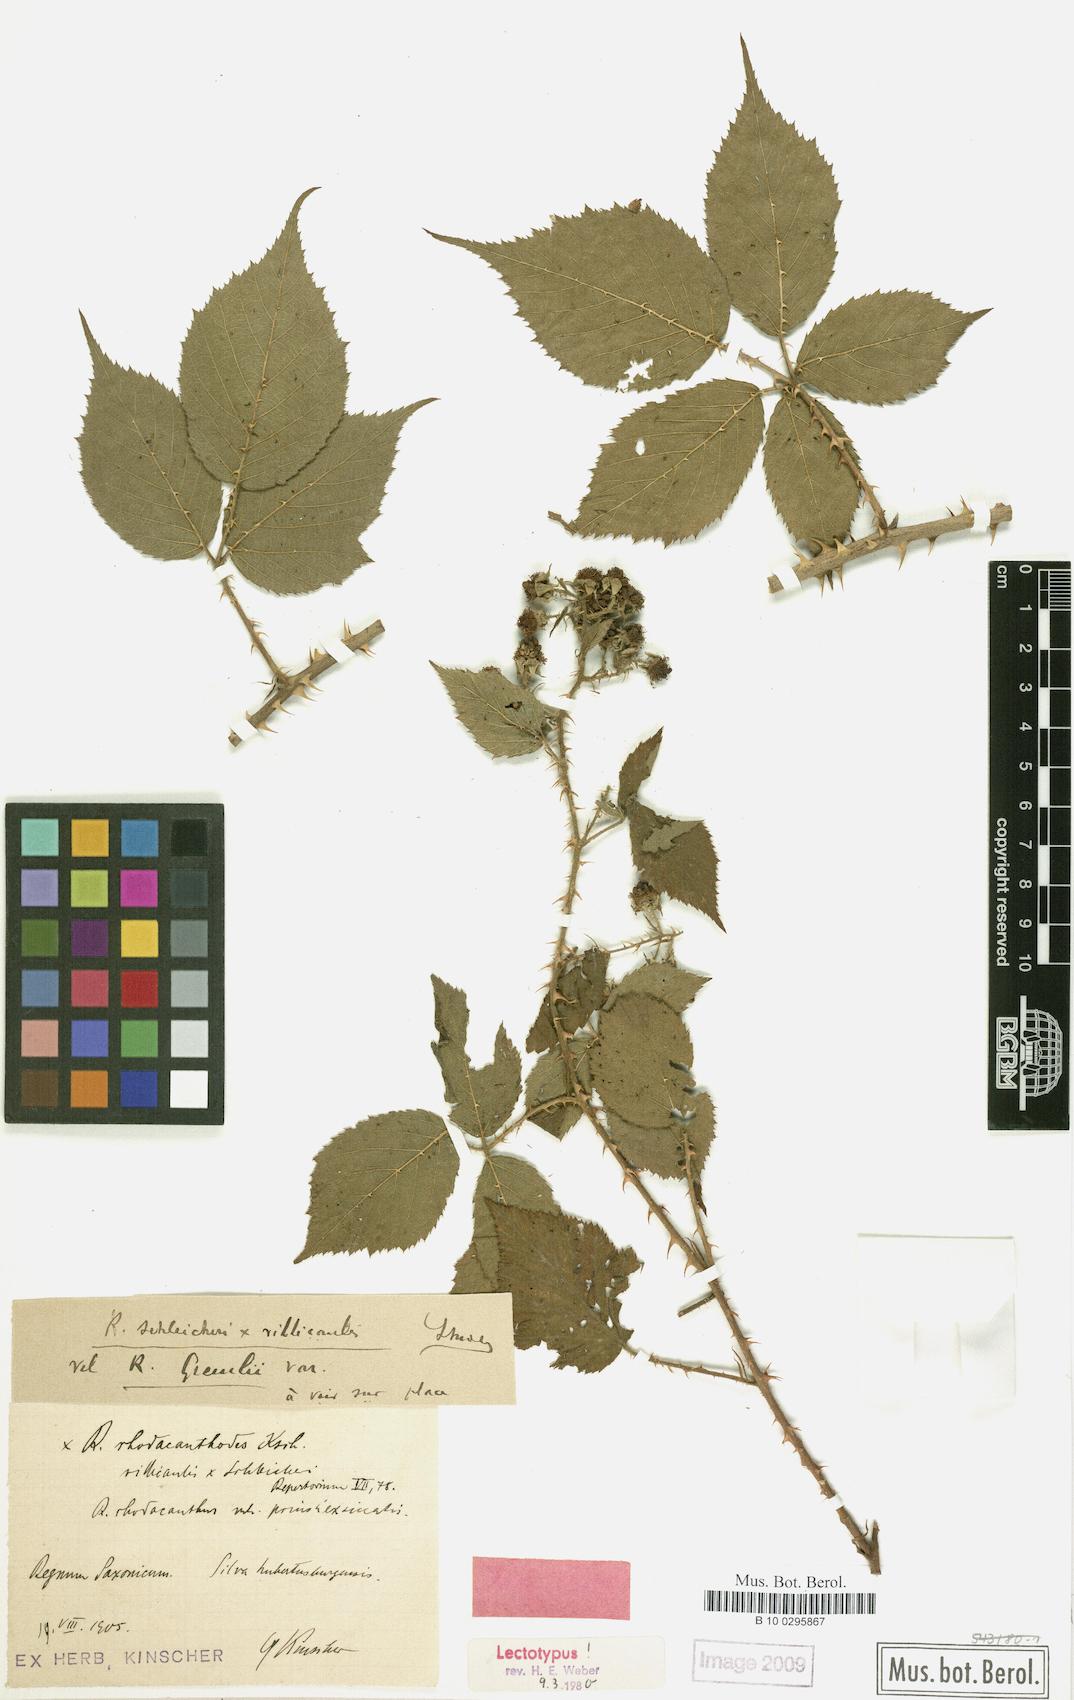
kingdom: Plantae
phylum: Tracheophyta
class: Magnoliopsida
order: Rosales
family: Rosaceae
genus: Rubus
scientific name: Rubus rhodacanthodes
